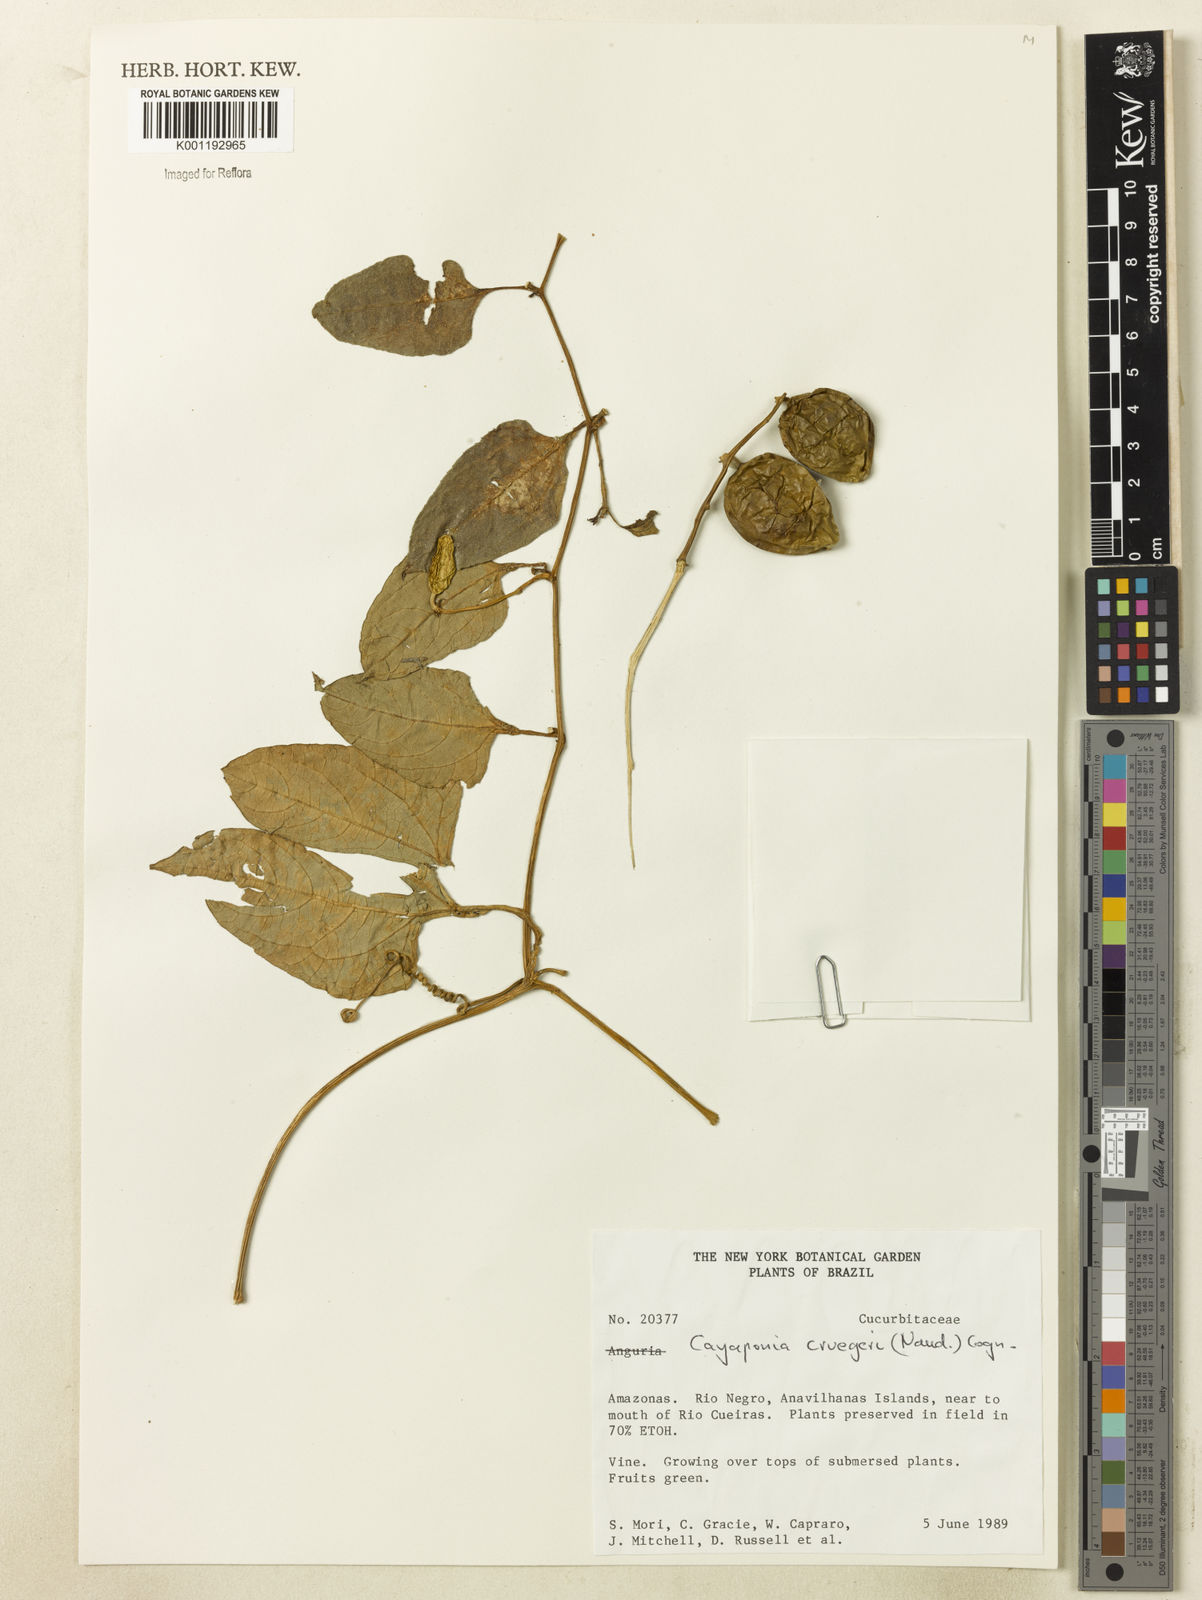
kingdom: Plantae
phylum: Tracheophyta
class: Magnoliopsida
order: Cucurbitales
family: Cucurbitaceae
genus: Cayaponia
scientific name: Cayaponia cruegeri
